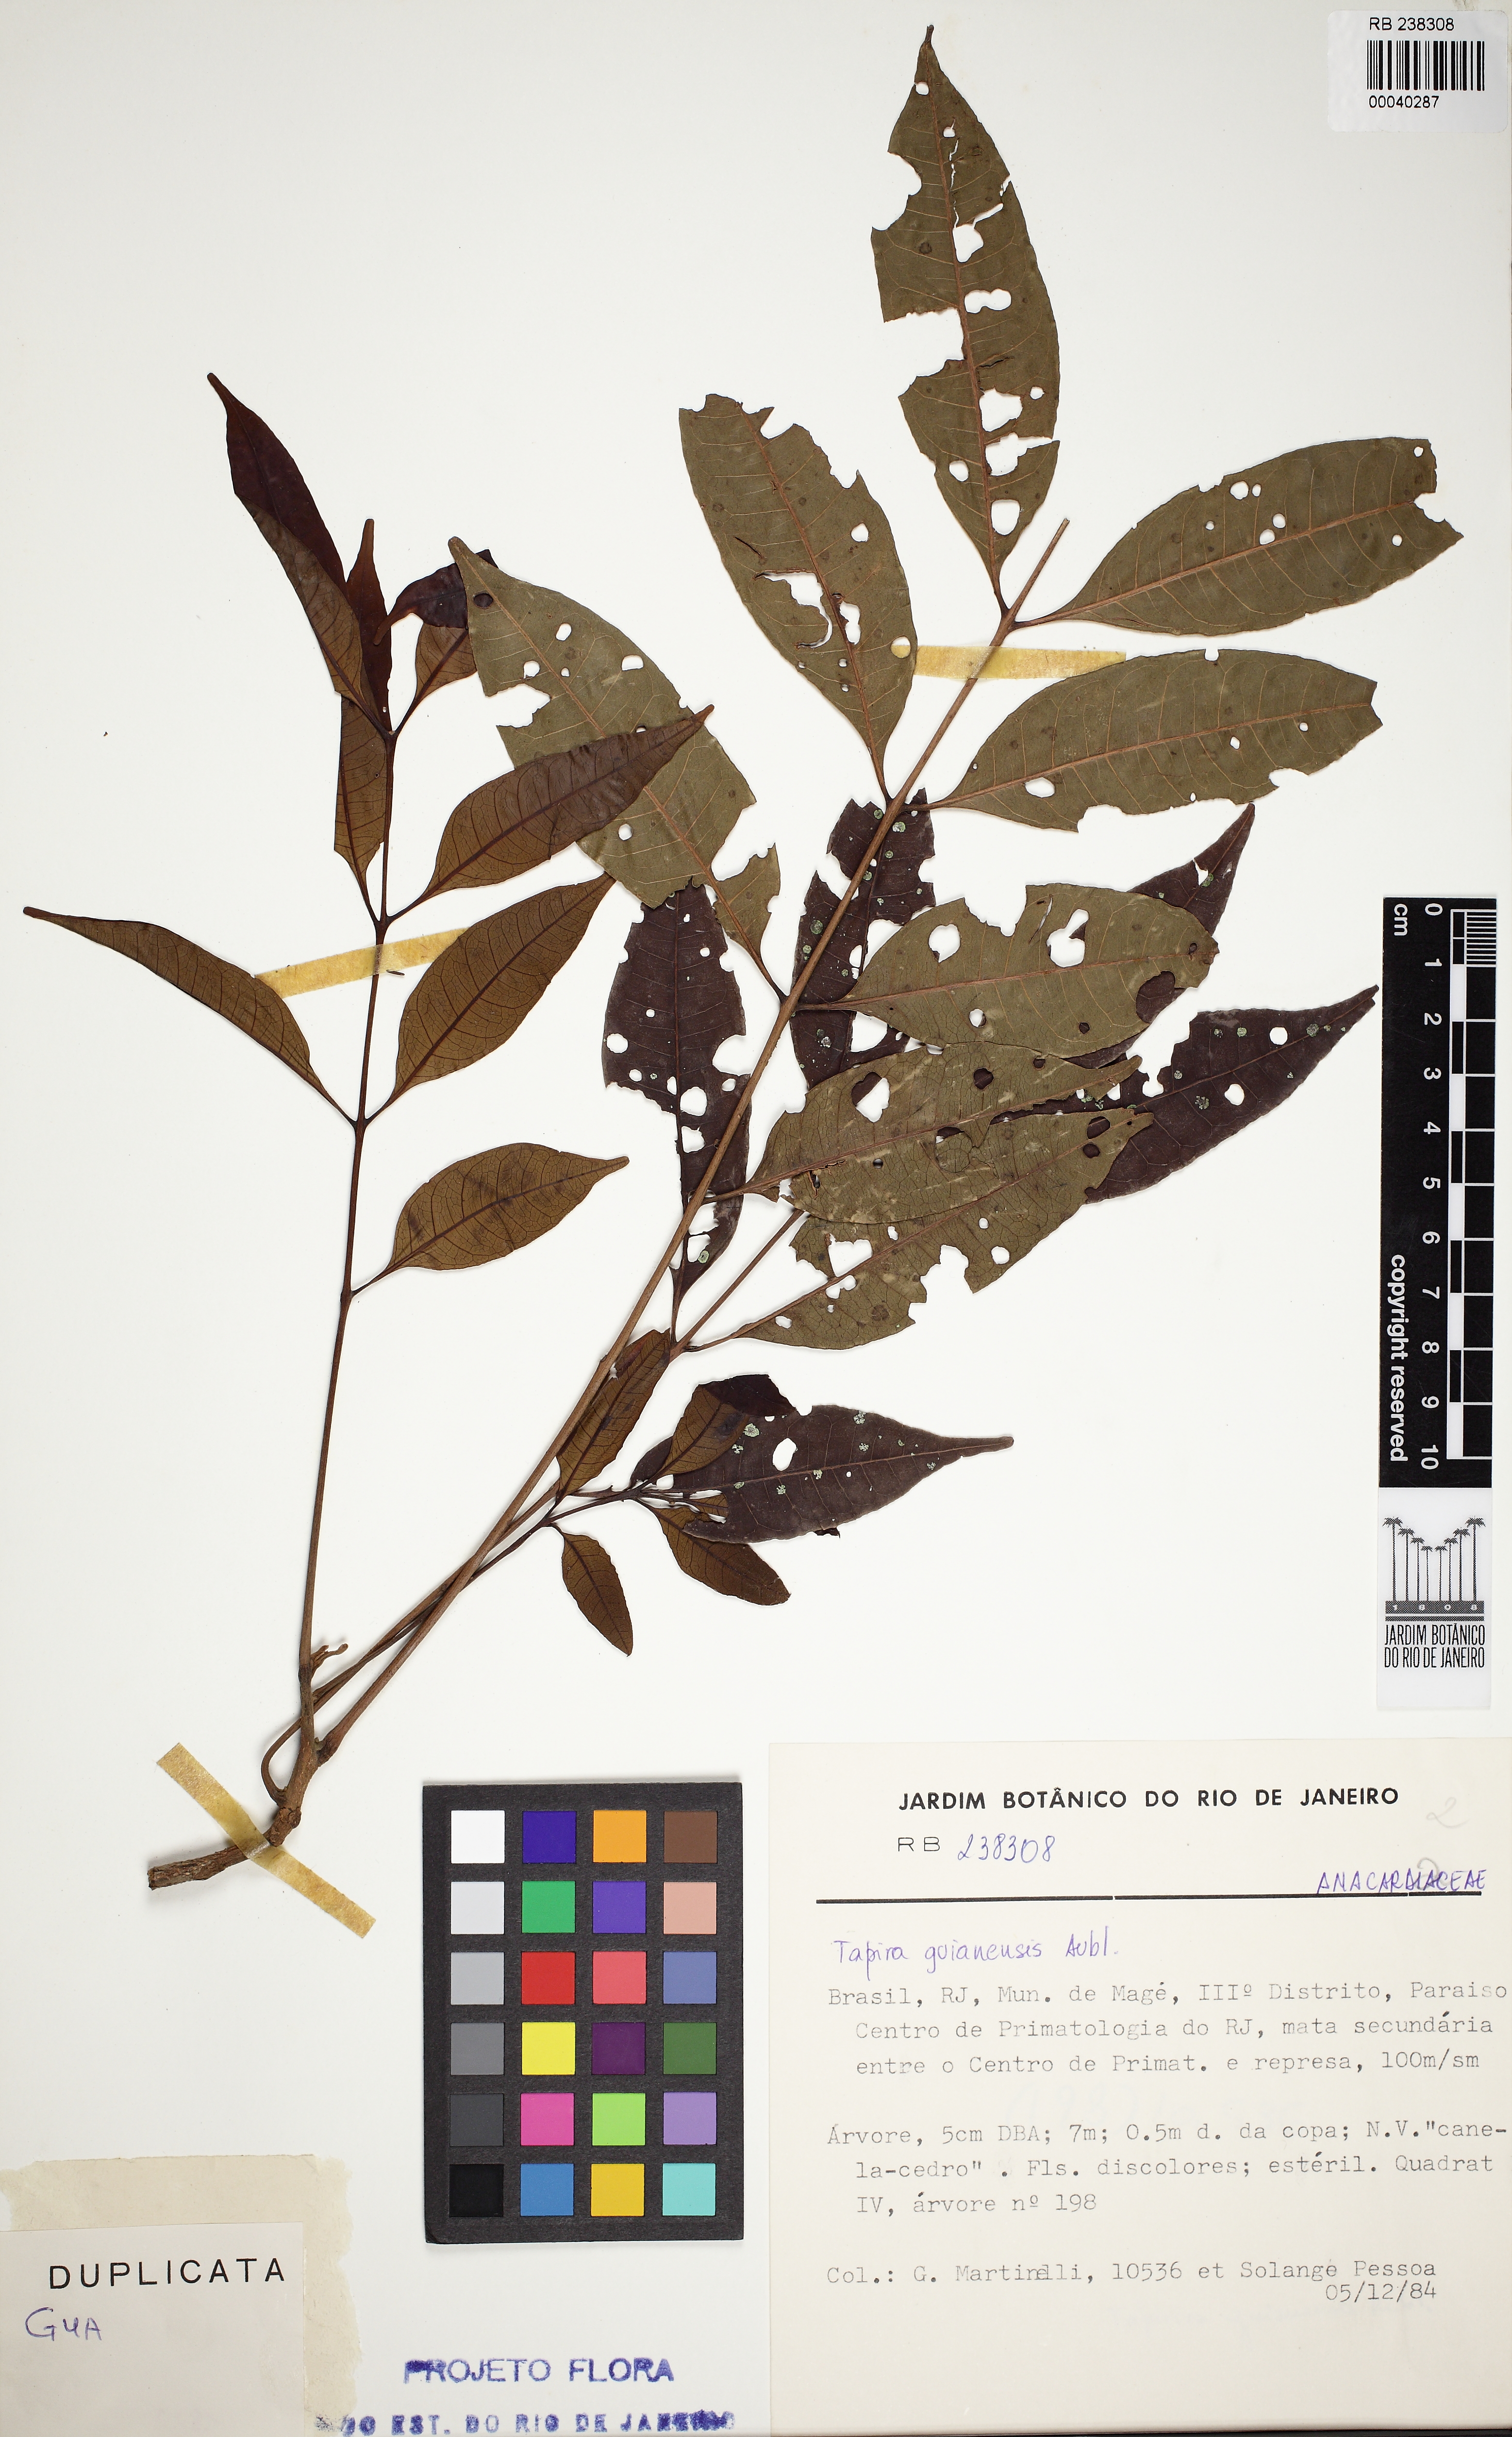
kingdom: Plantae
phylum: Tracheophyta
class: Magnoliopsida
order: Sapindales
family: Anacardiaceae
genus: Tapirira
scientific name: Tapirira guianensis
